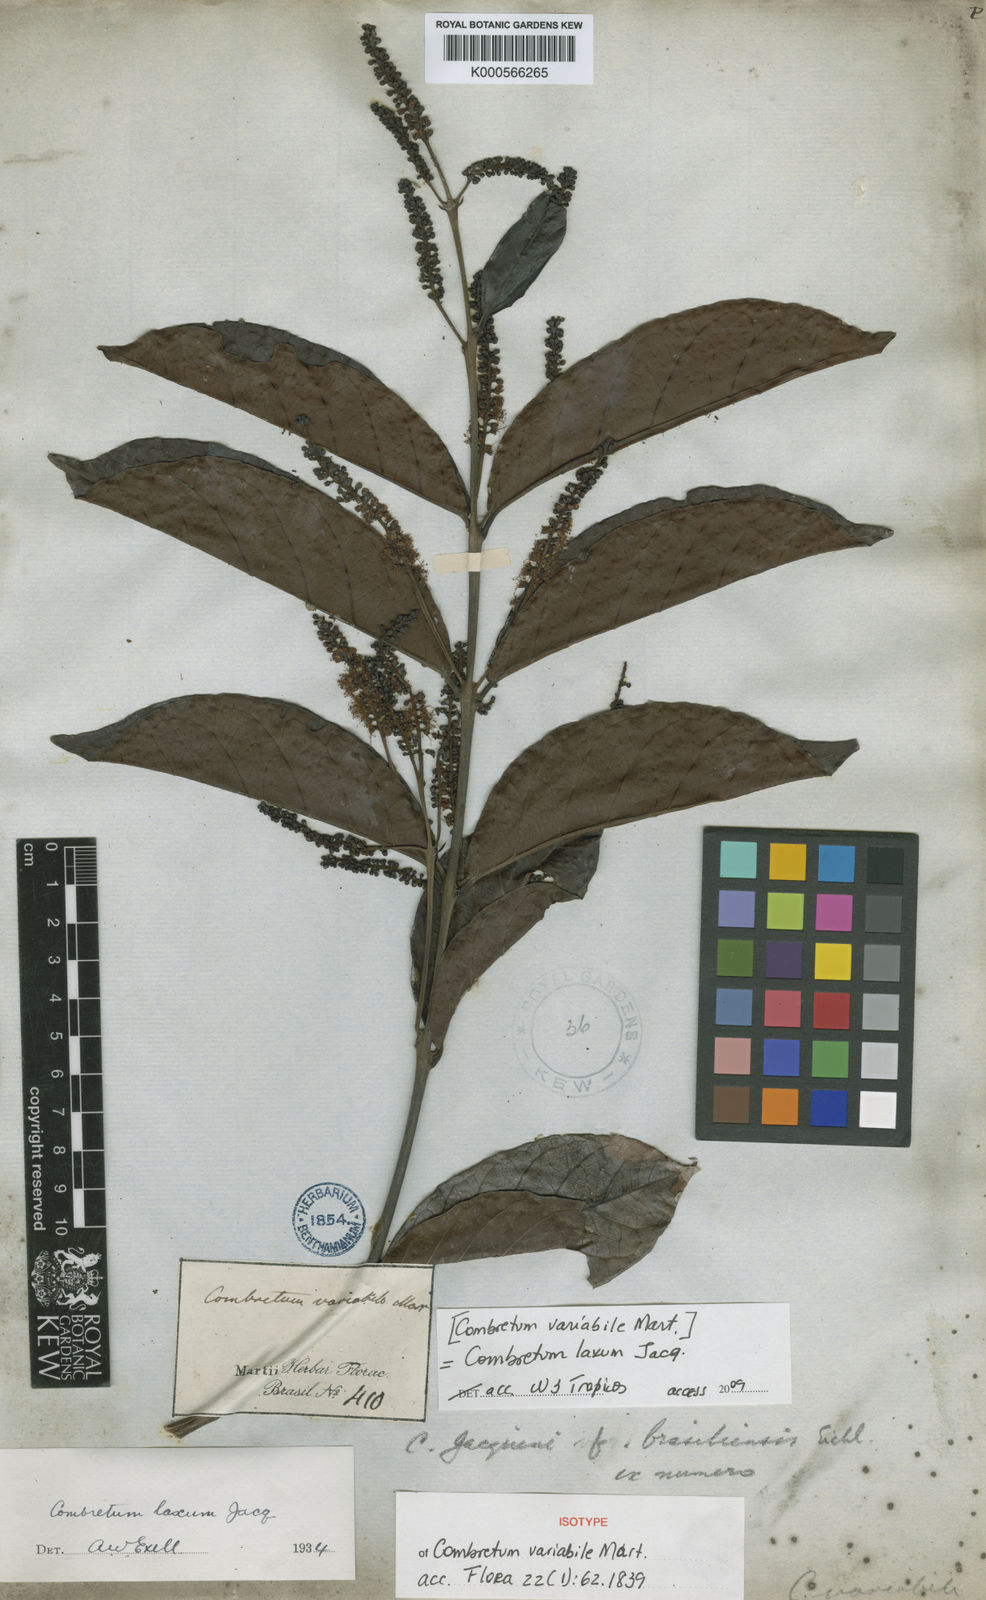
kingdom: Plantae
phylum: Tracheophyta
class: Magnoliopsida
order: Myrtales
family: Combretaceae
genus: Combretum
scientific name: Combretum laxum
